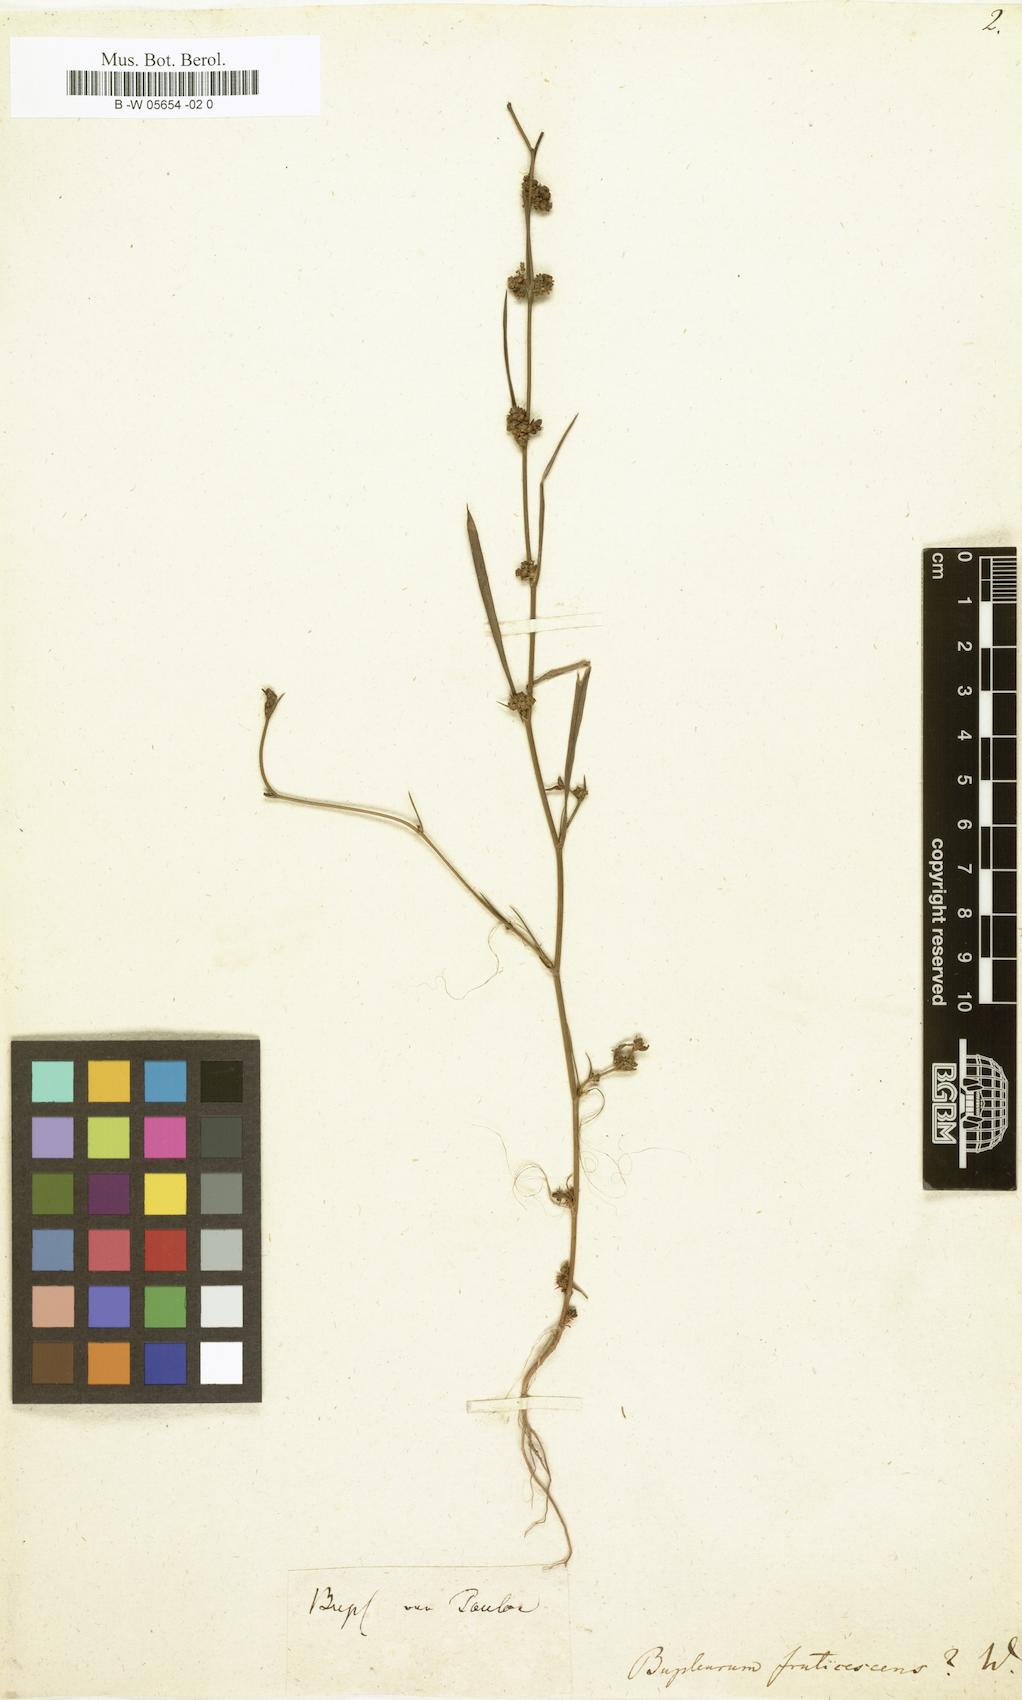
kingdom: Plantae
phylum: Tracheophyta
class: Magnoliopsida
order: Apiales
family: Apiaceae
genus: Bupleurum
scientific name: Bupleurum fruticescens
